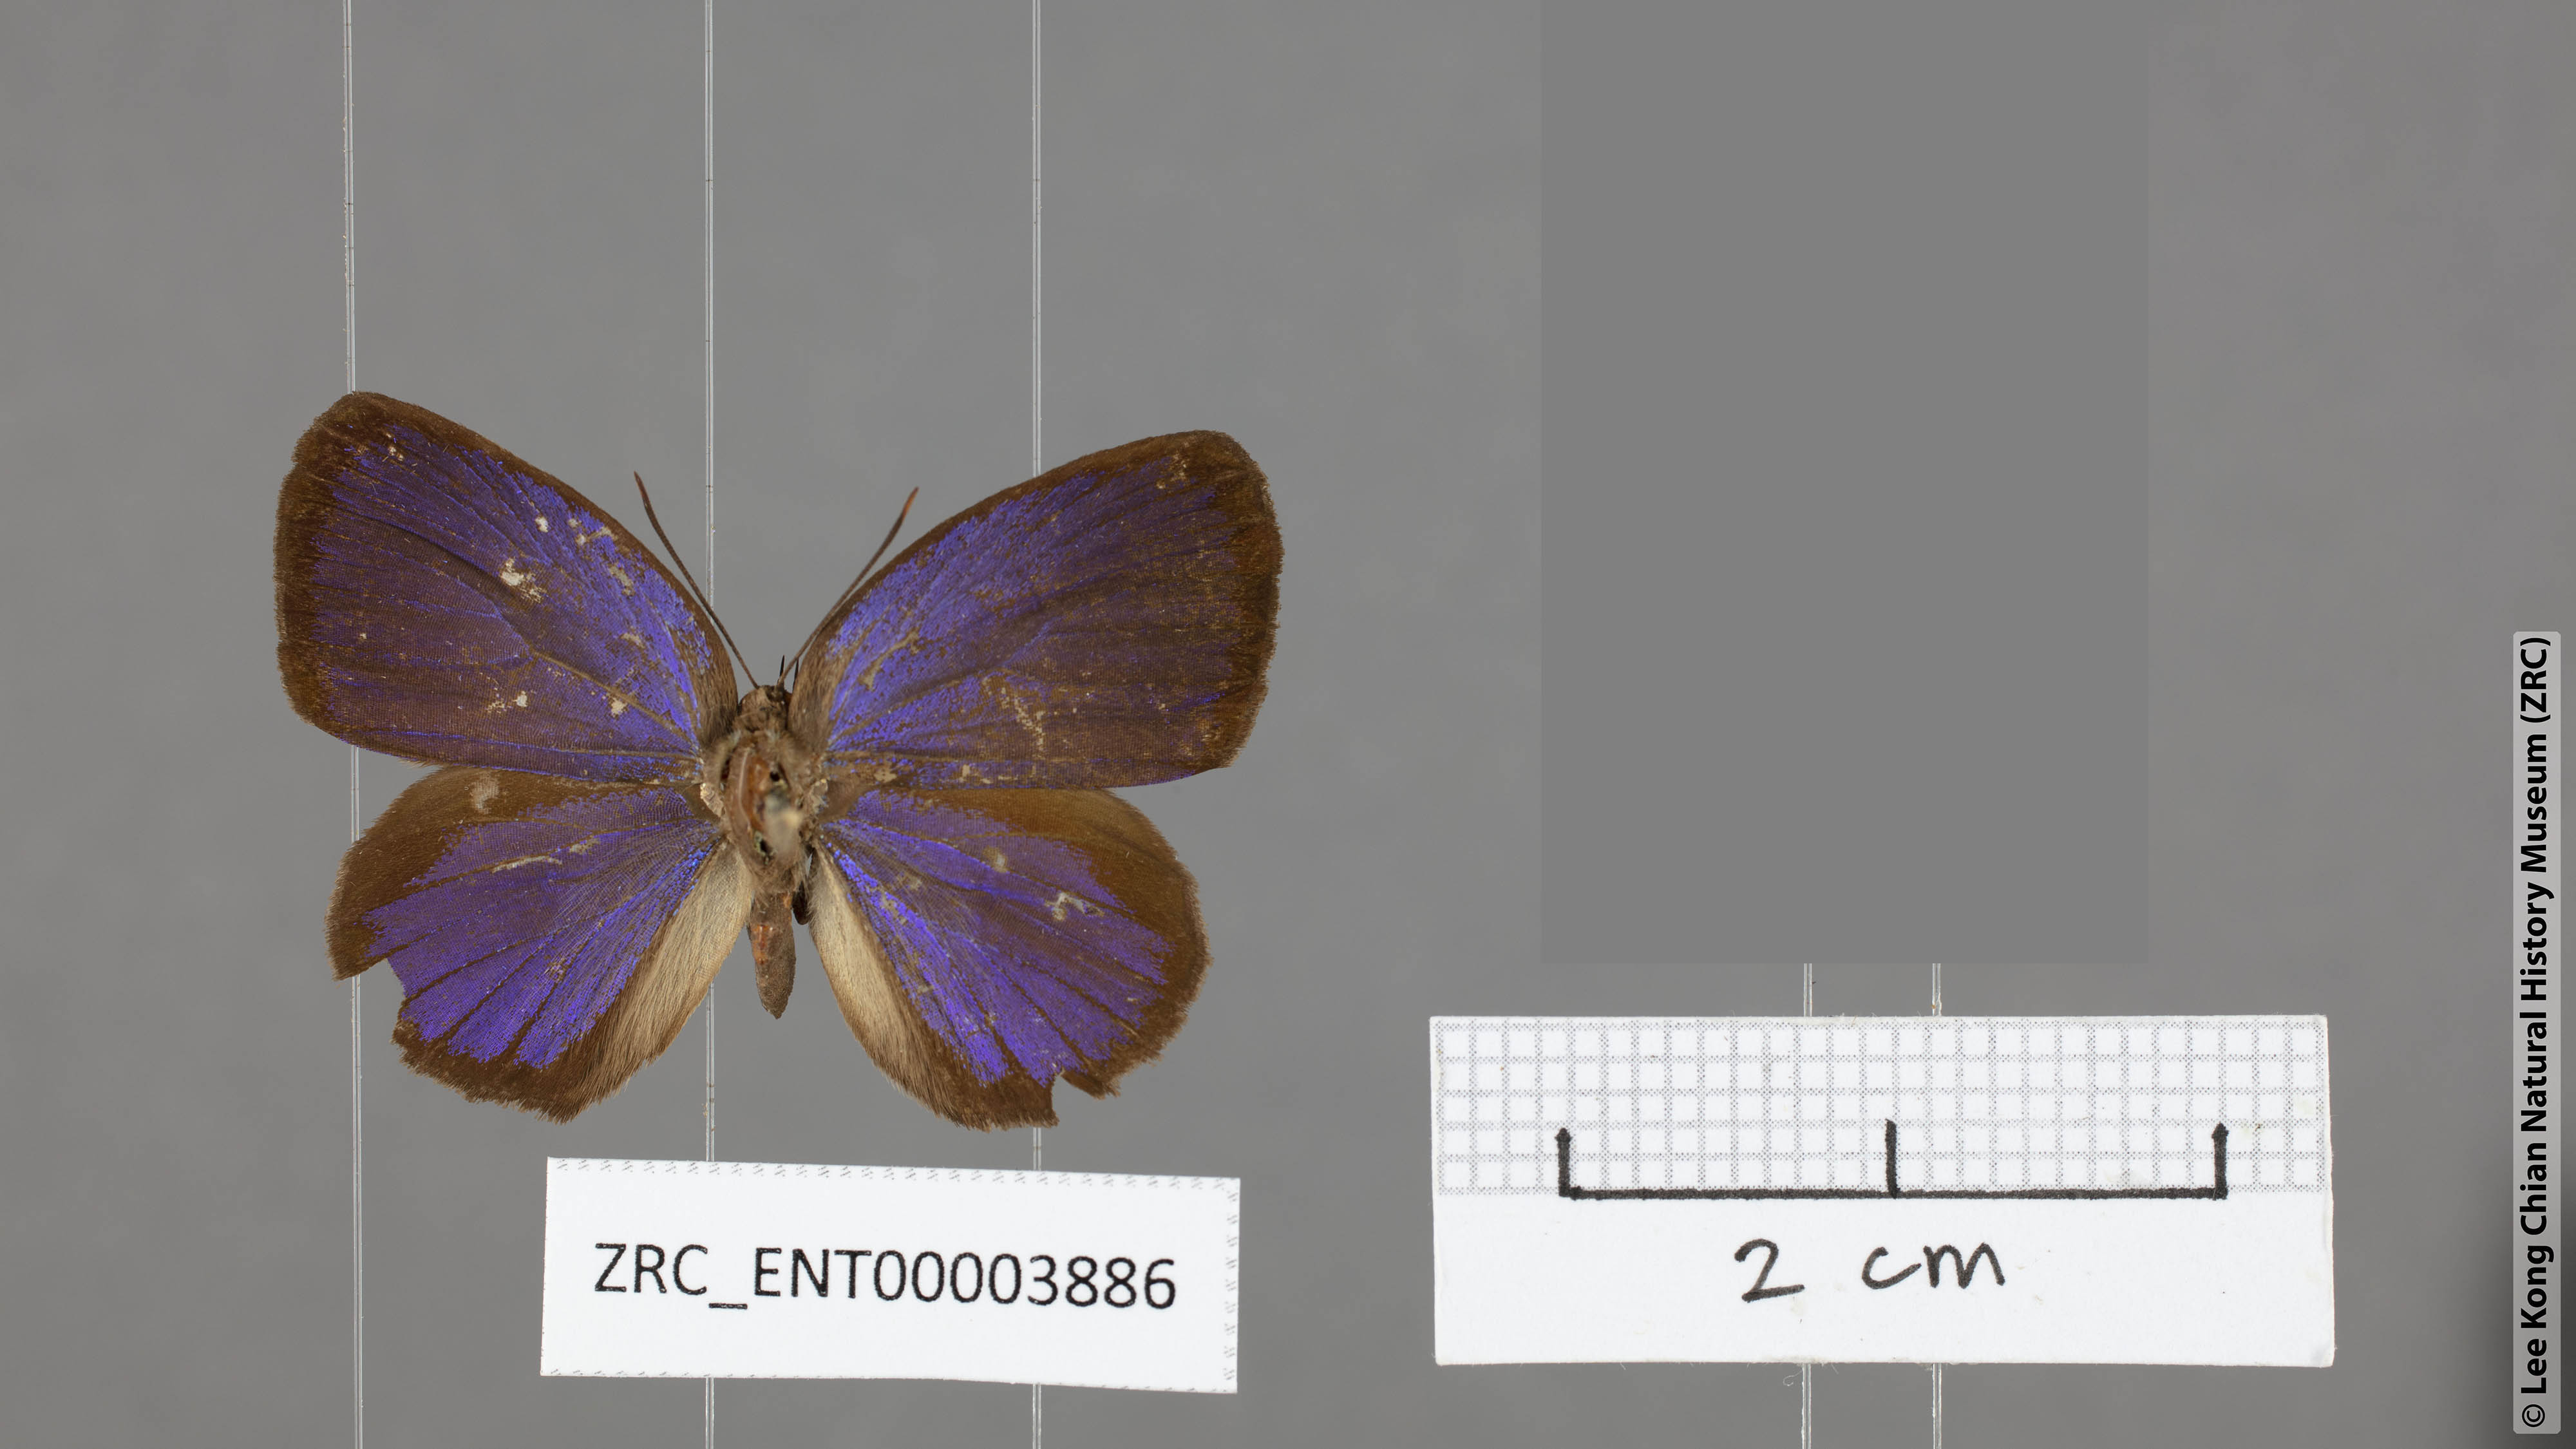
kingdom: Animalia
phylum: Arthropoda
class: Insecta
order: Lepidoptera
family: Lycaenidae
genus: Arhopala
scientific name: Arhopala avathina
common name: Lunulate yellow oakblue
